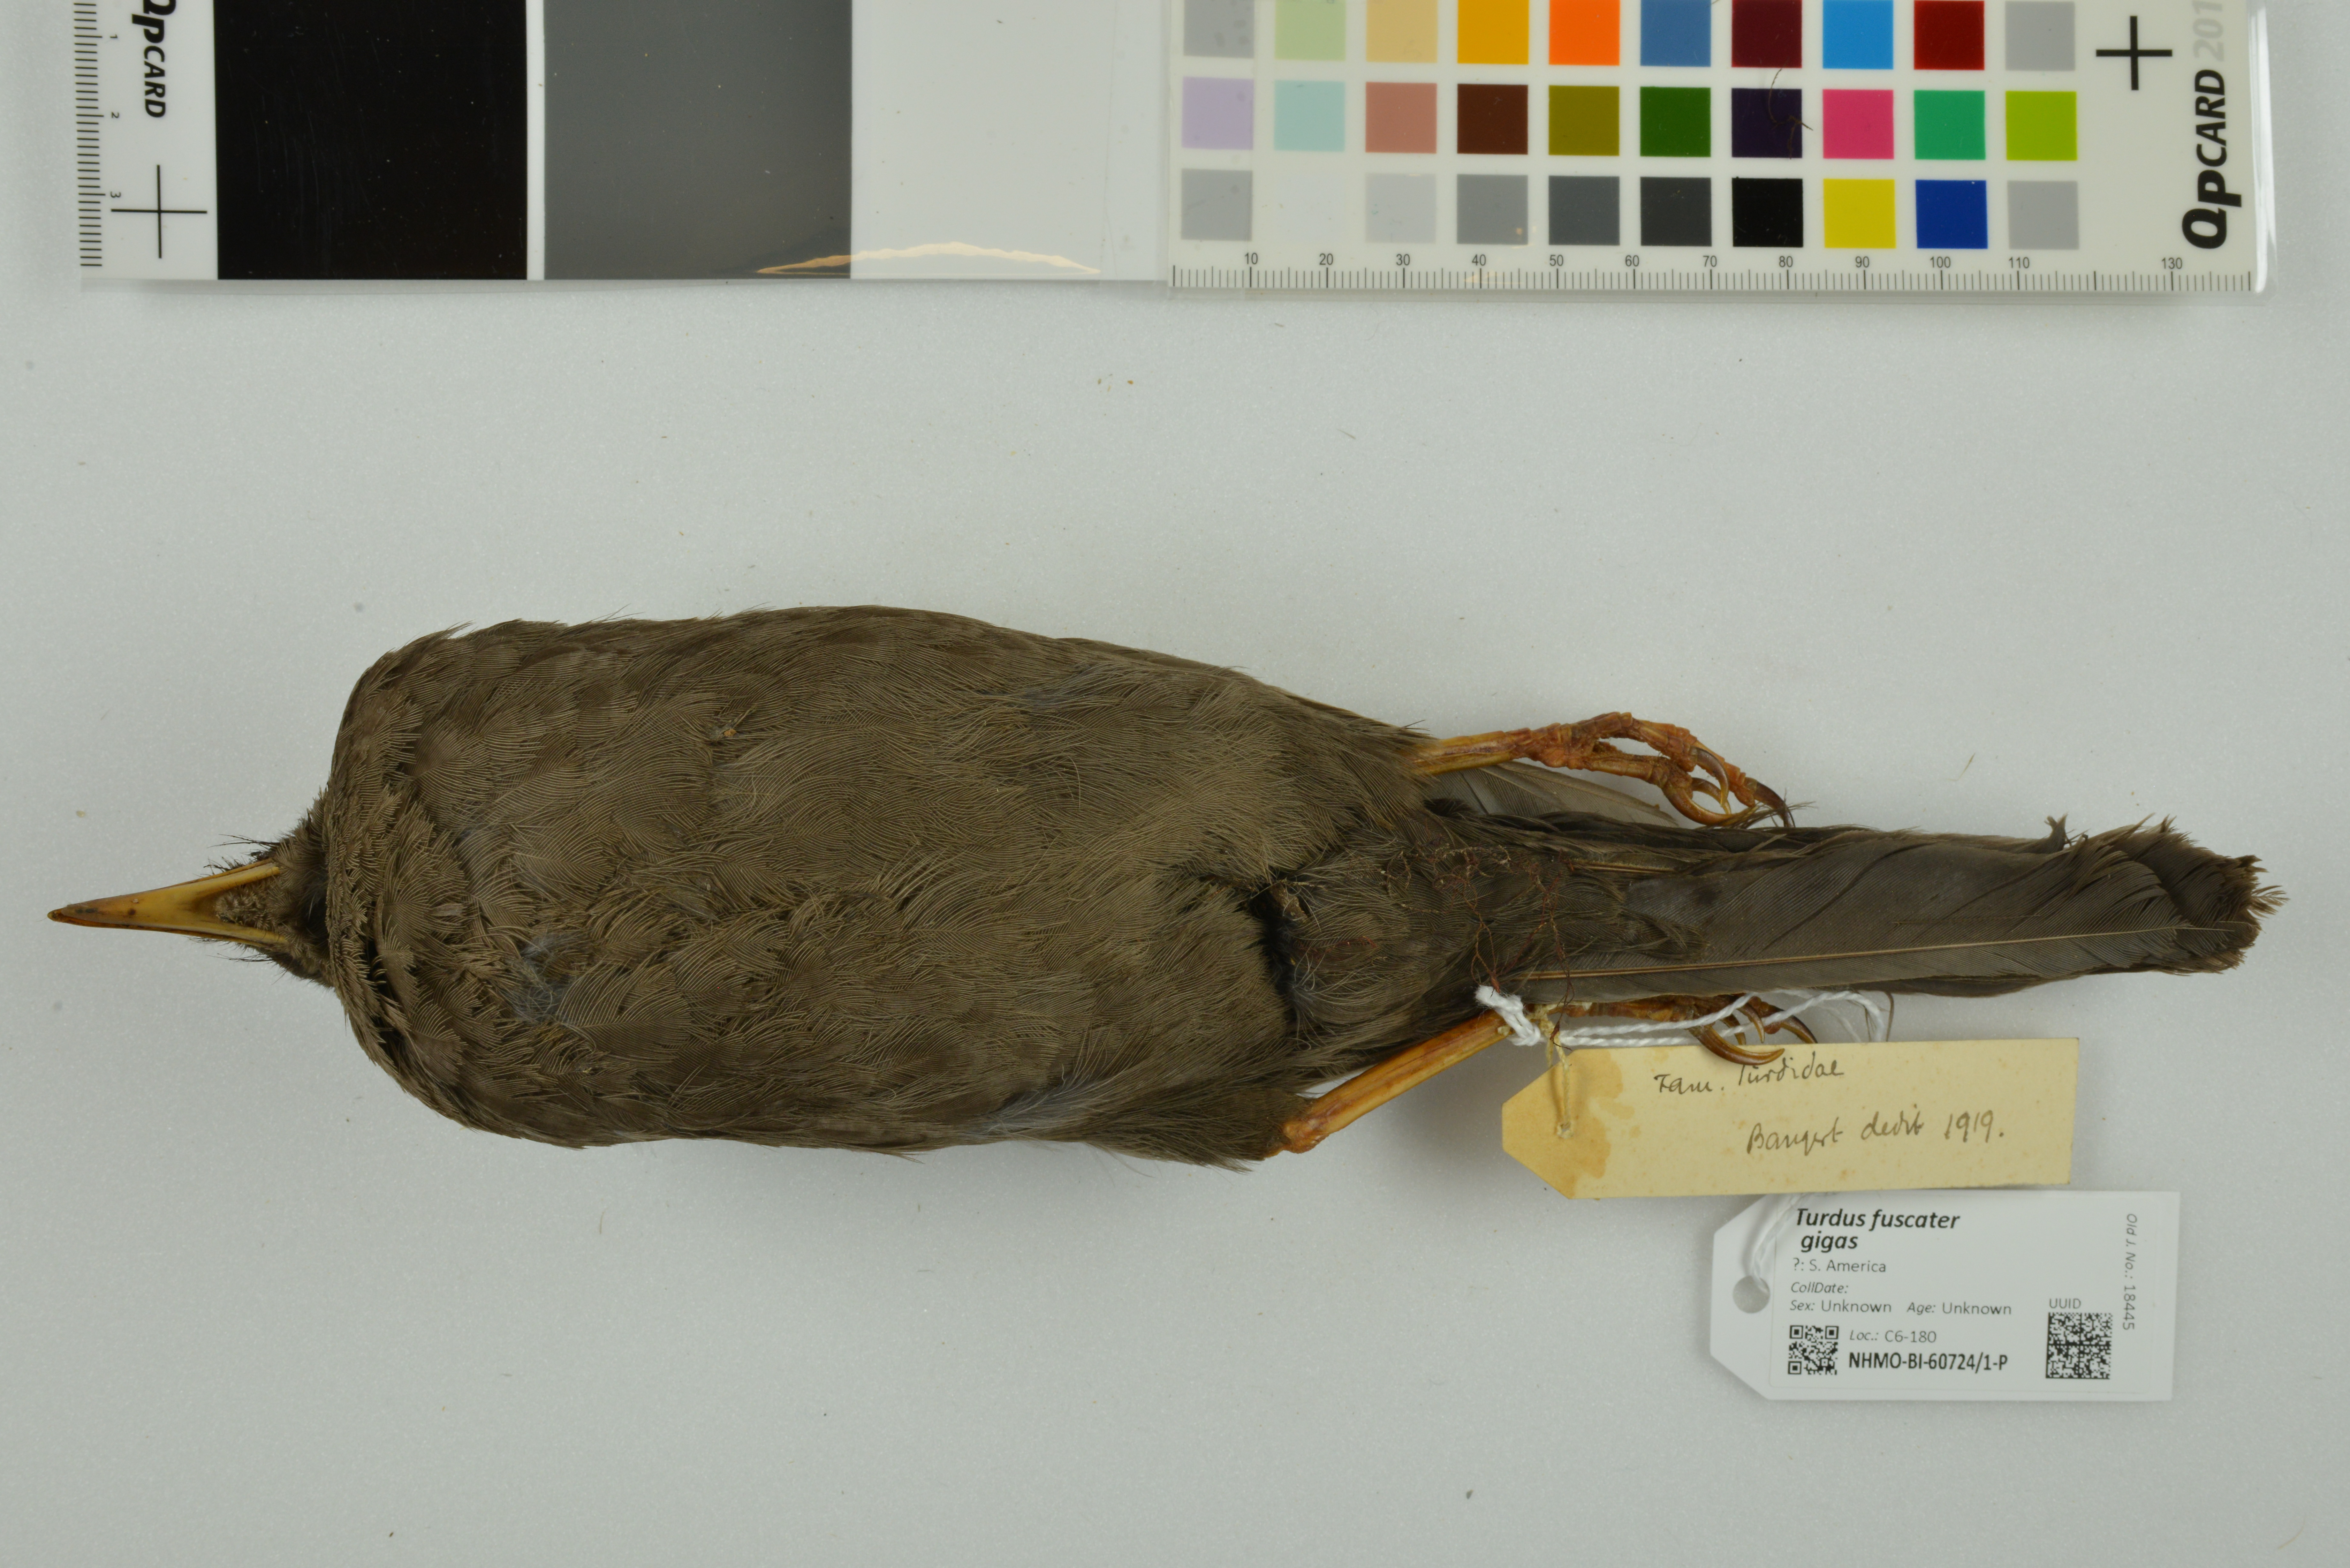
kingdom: Animalia
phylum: Chordata
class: Aves
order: Passeriformes
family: Turdidae
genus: Turdus
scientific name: Turdus fuscater
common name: Great thrush
